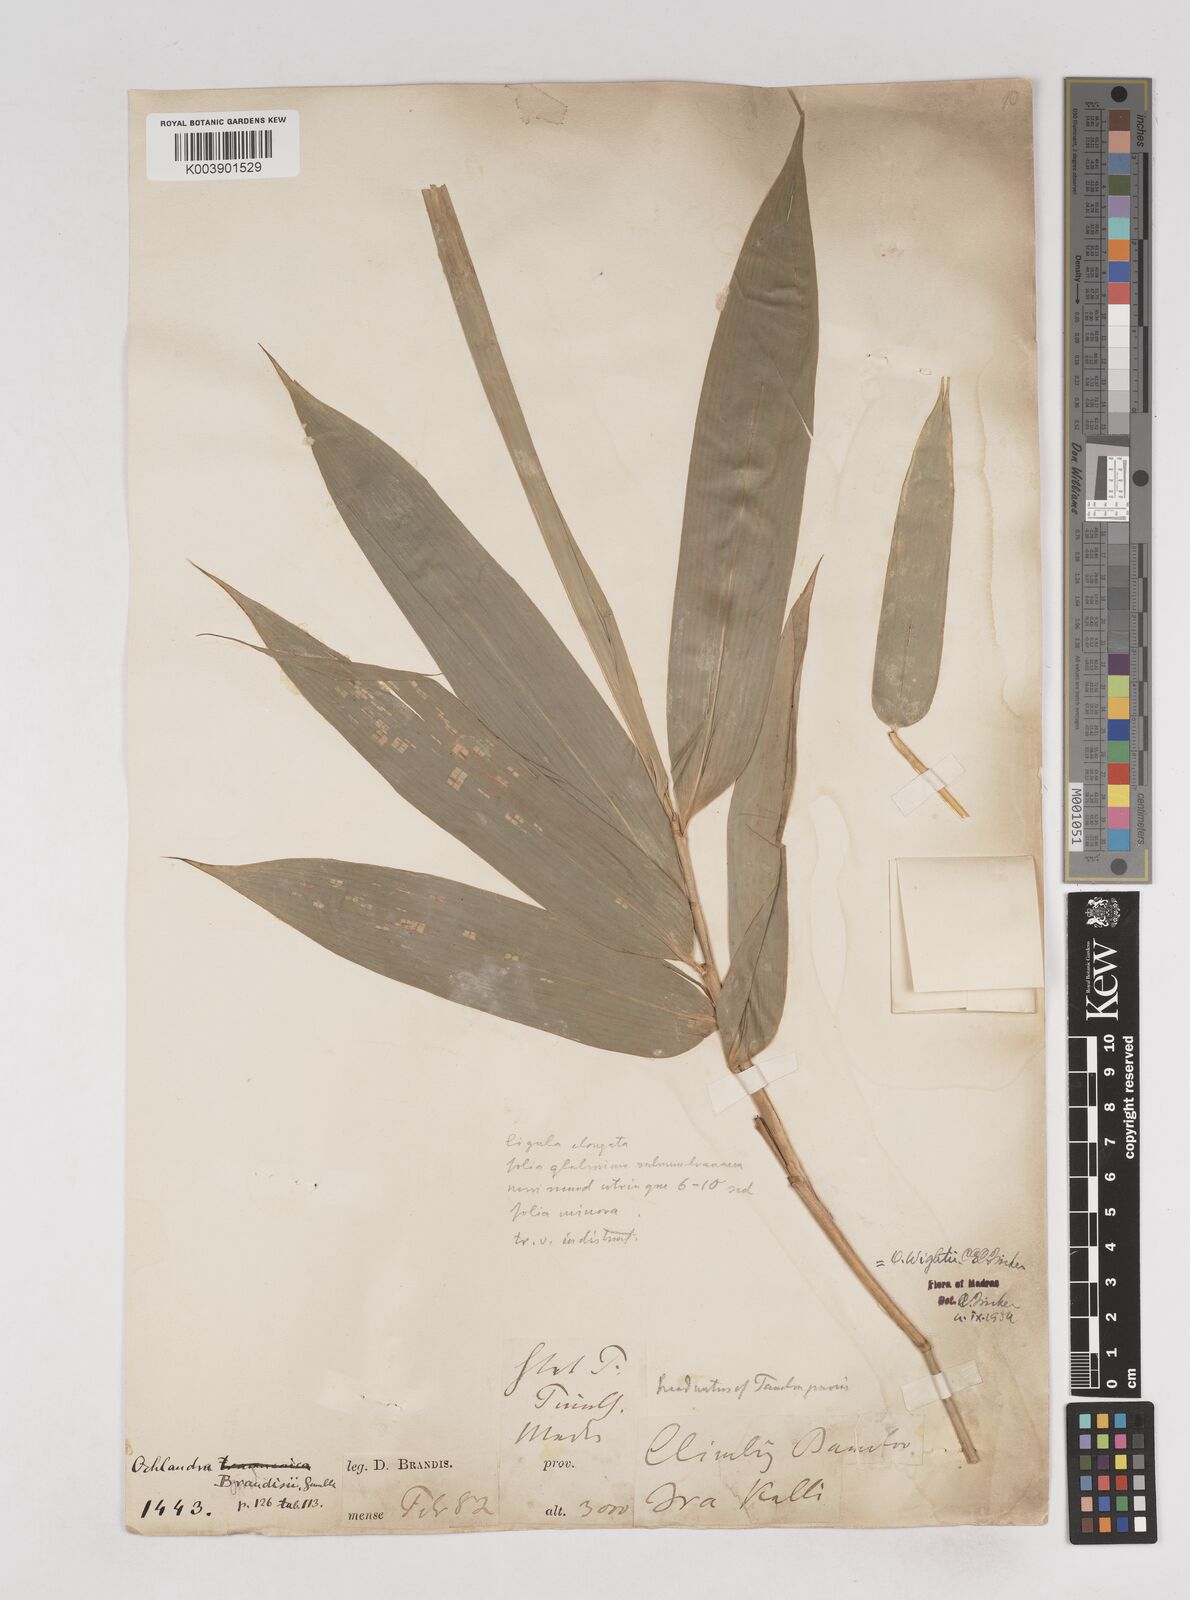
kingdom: Plantae
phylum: Tracheophyta
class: Liliopsida
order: Poales
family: Poaceae
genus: Ochlandra
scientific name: Ochlandra wightii
